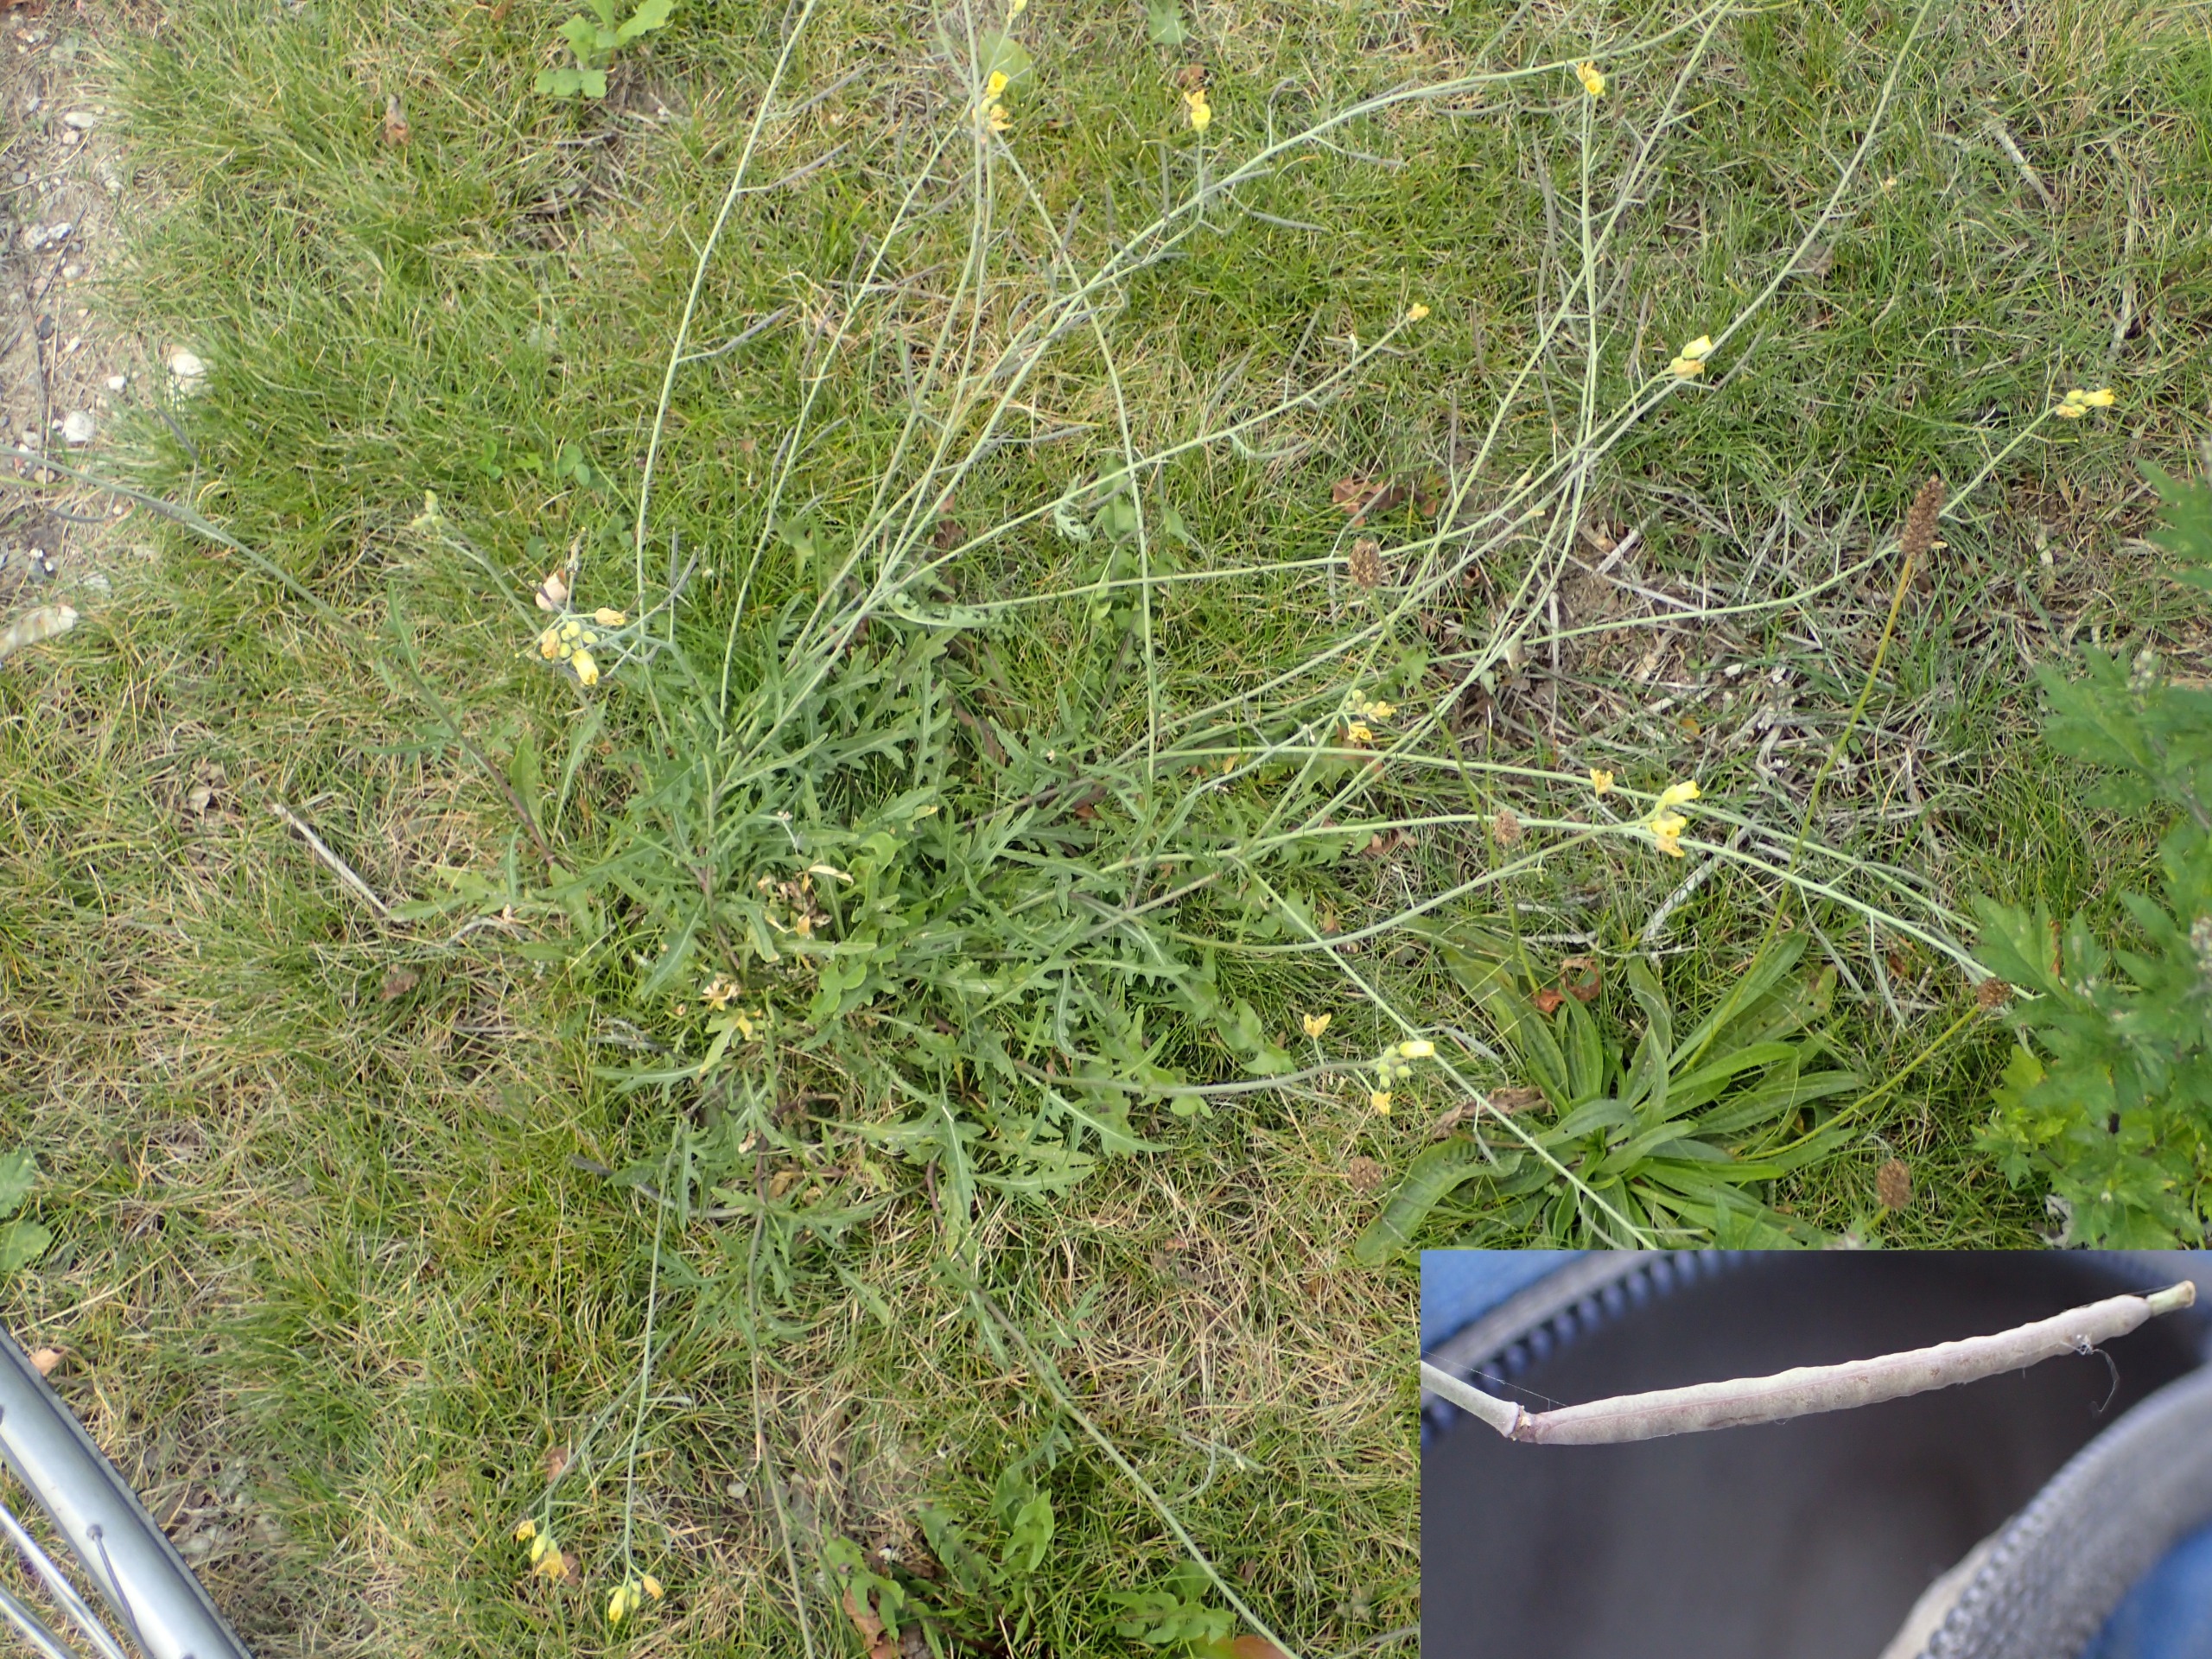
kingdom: Plantae
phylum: Tracheophyta
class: Magnoliopsida
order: Brassicales
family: Brassicaceae
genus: Diplotaxis
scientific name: Diplotaxis tenuifolia
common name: Sandsennep
